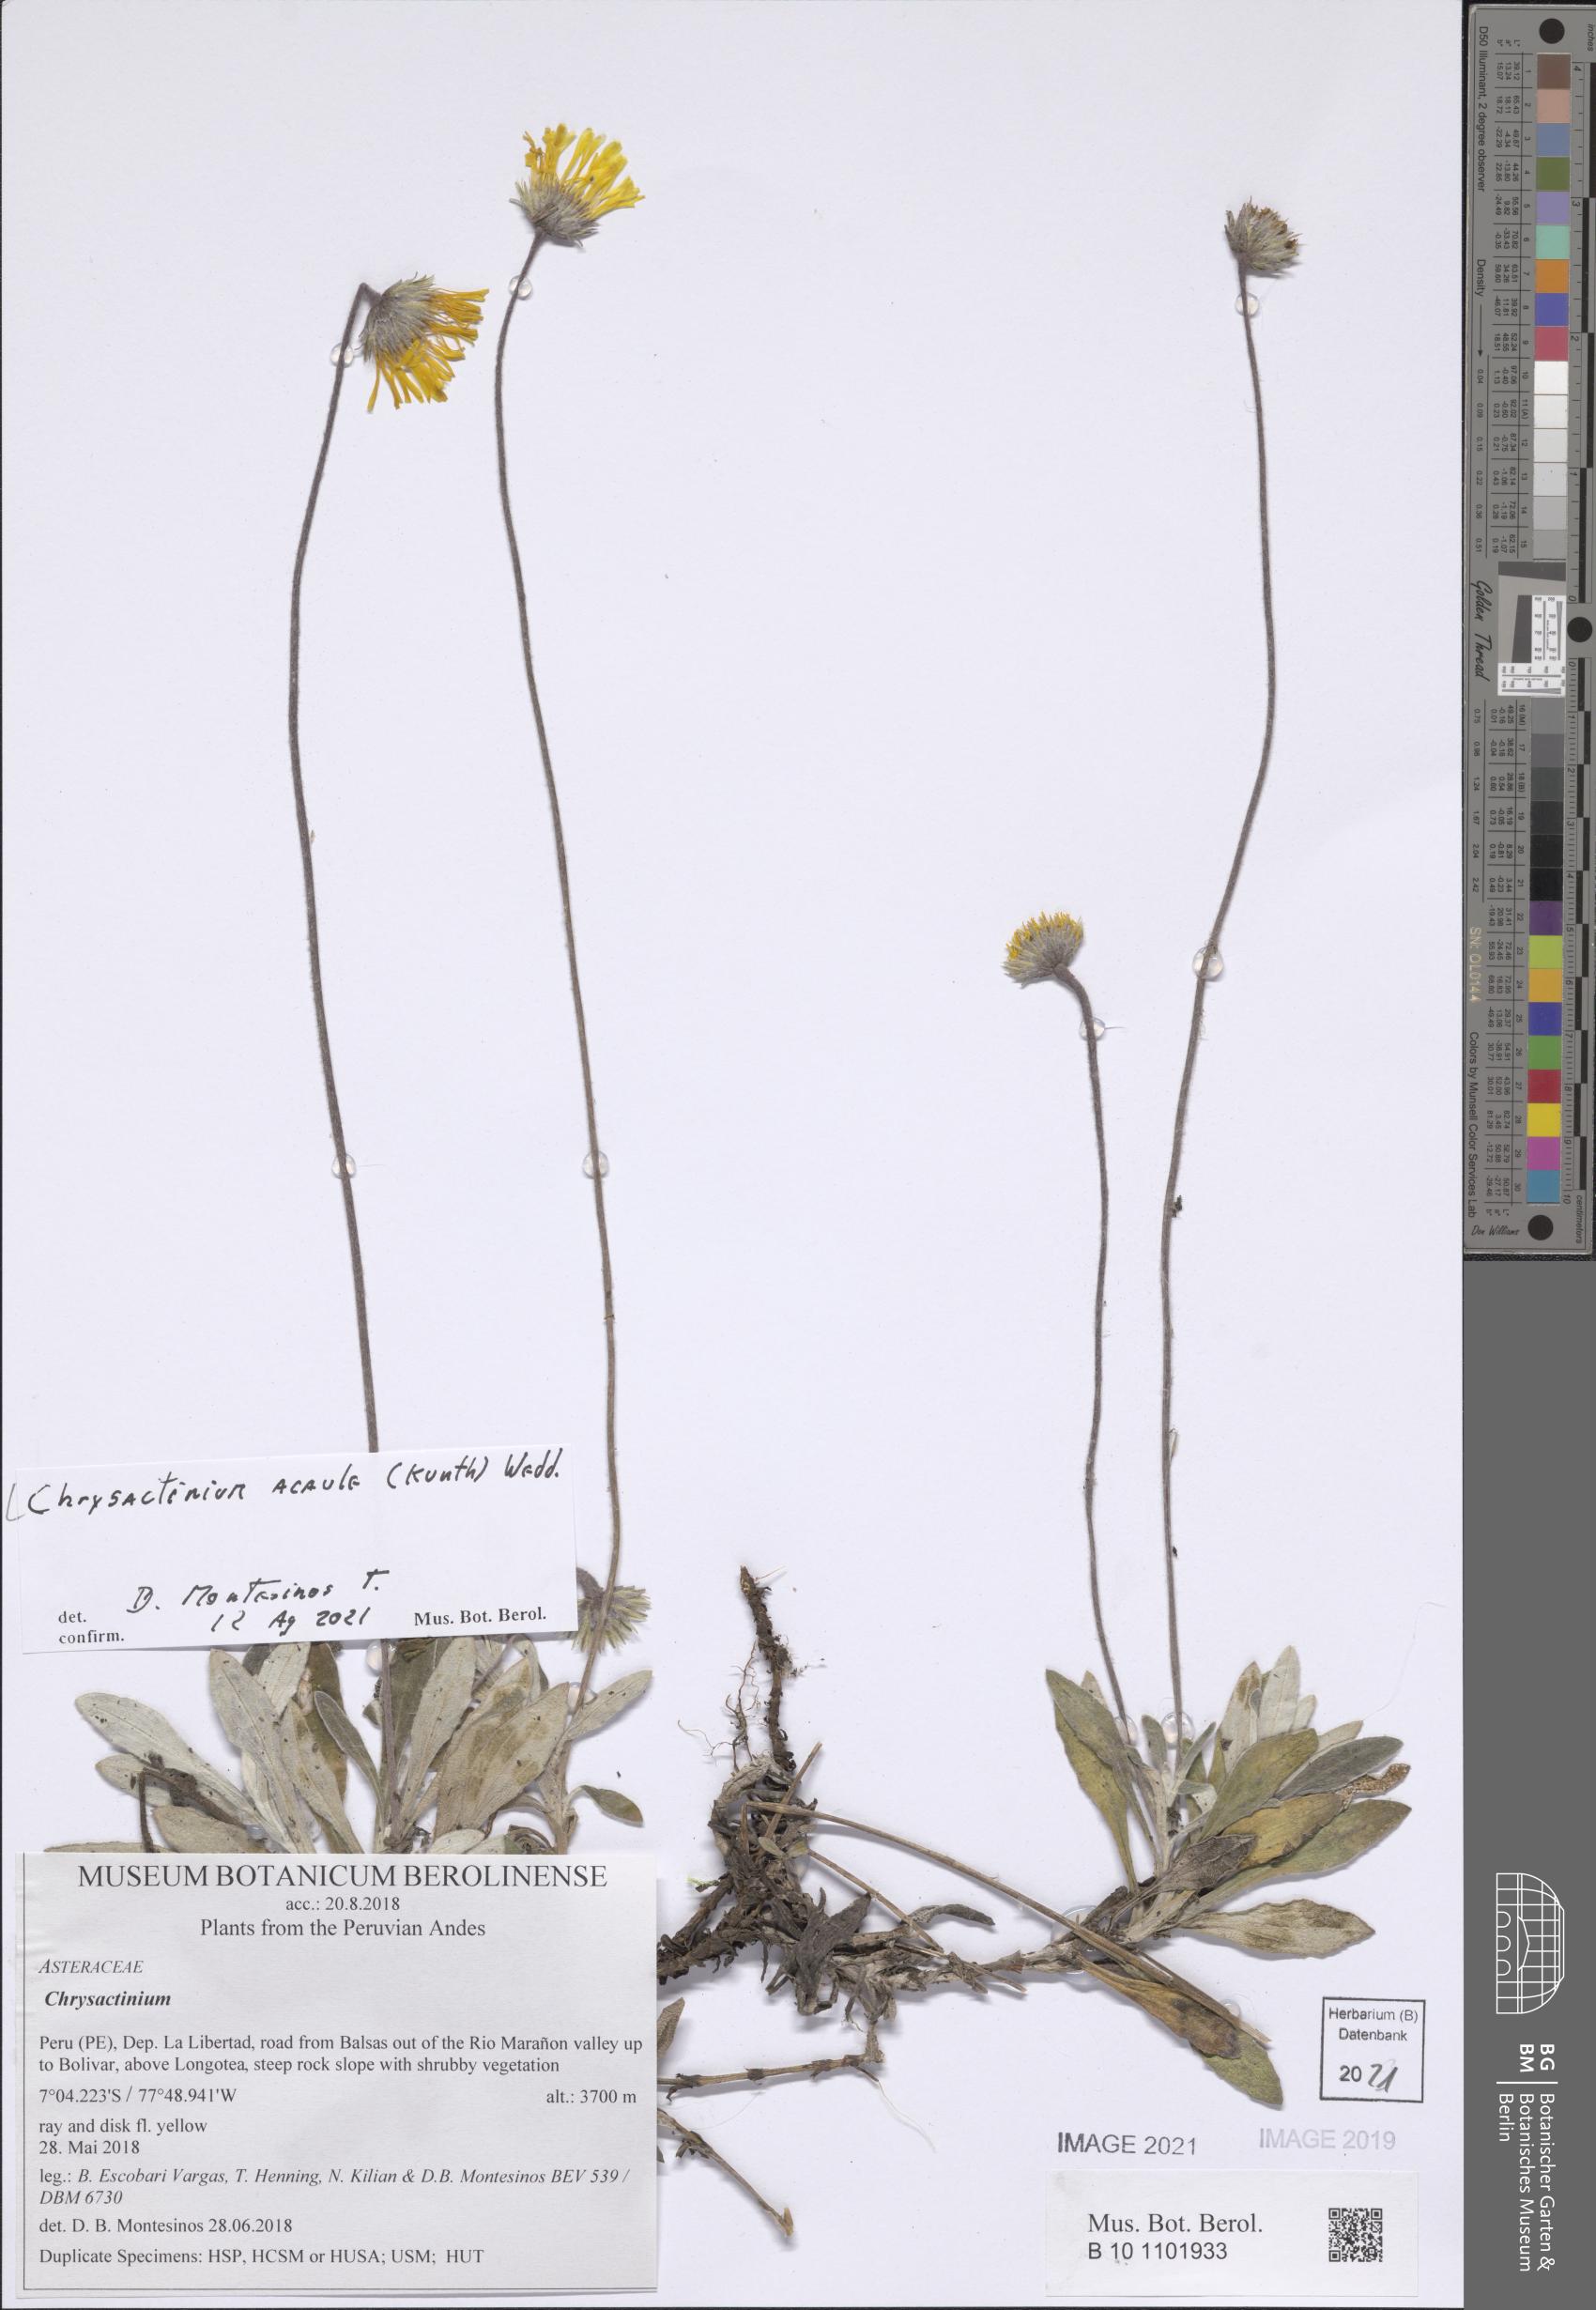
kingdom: Plantae
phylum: Tracheophyta
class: Magnoliopsida
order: Asterales
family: Asteraceae
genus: Chrysactinium
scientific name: Chrysactinium acaule
